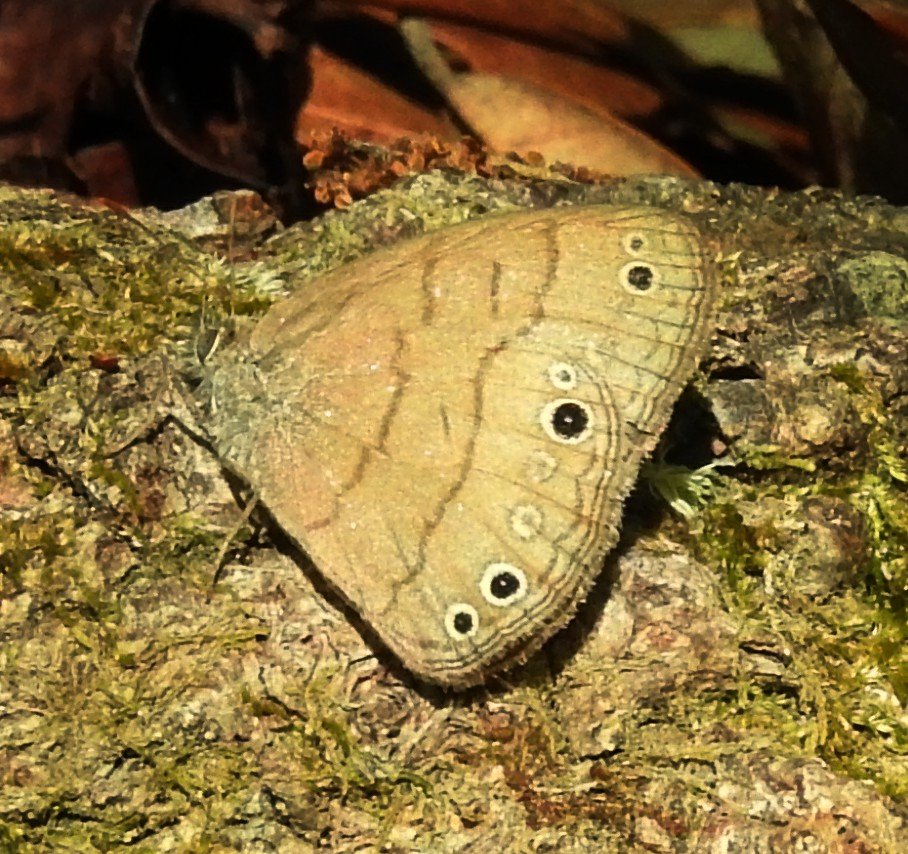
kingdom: Animalia
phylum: Arthropoda
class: Insecta
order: Lepidoptera
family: Nymphalidae
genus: Hermeuptychia
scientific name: Hermeuptychia hermes
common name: Carolina Satyr
